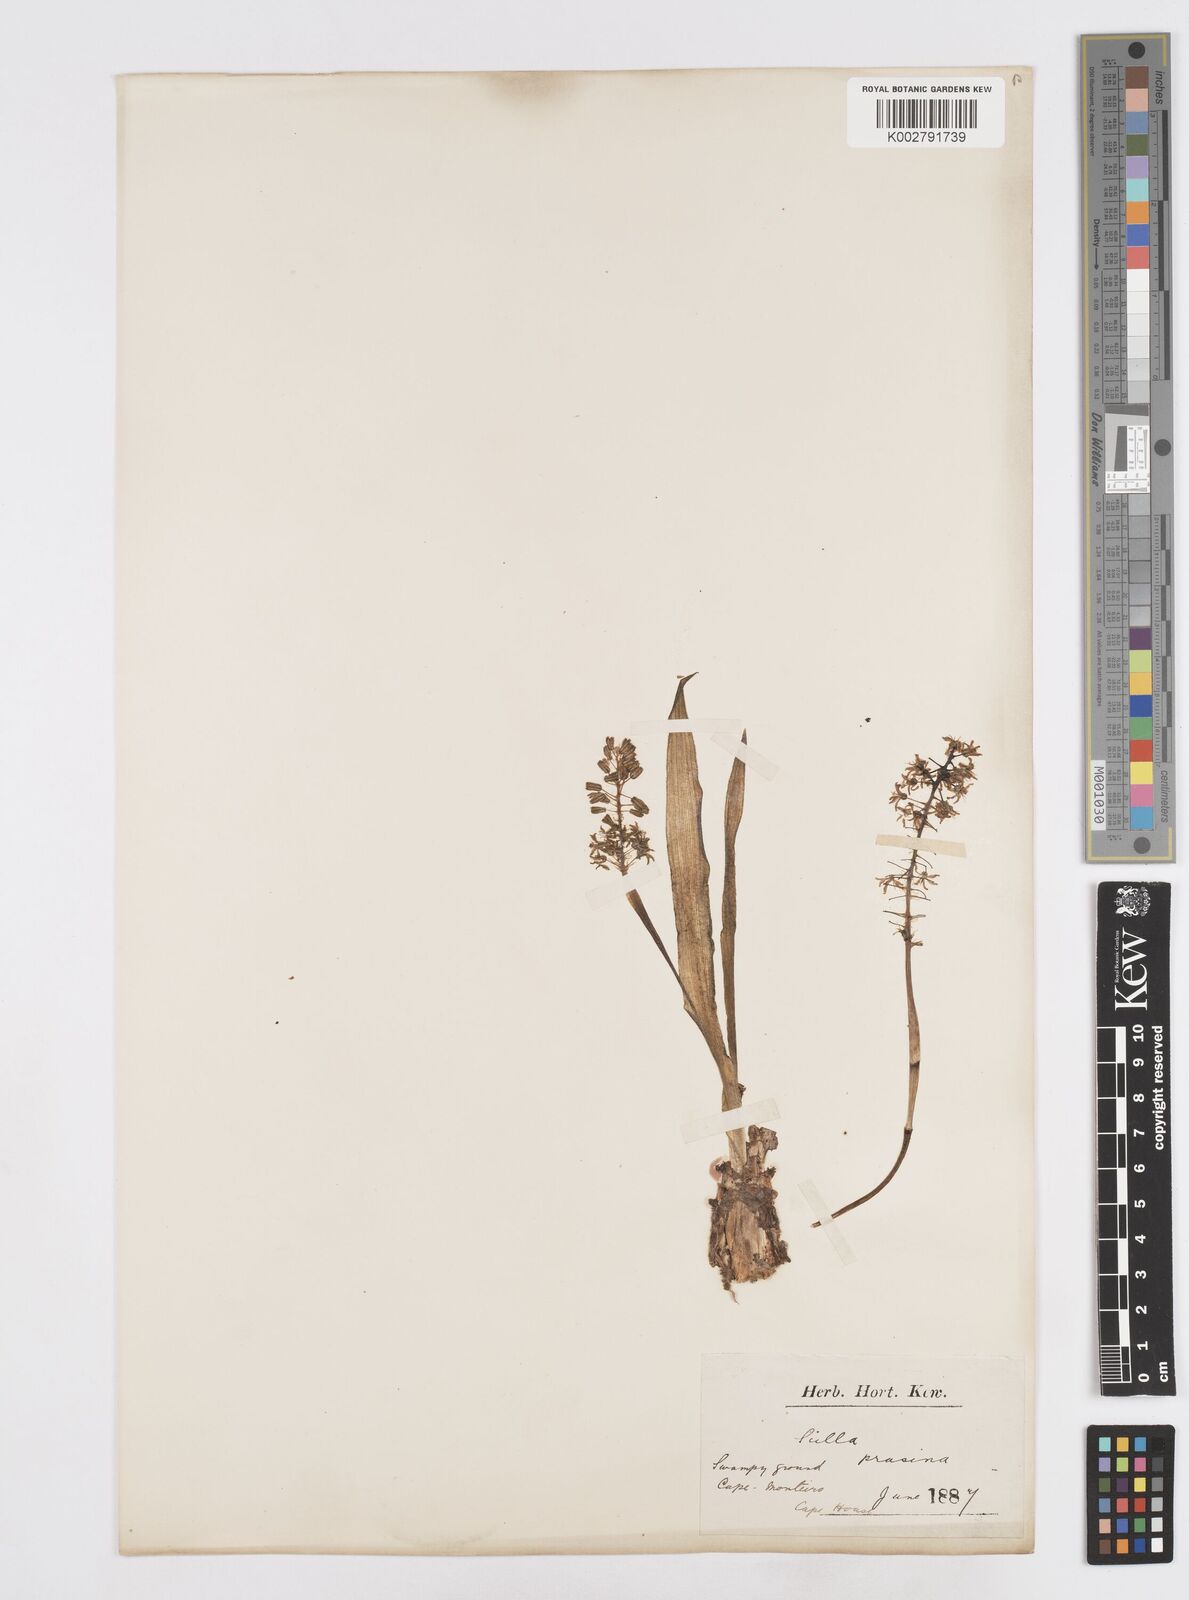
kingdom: Plantae
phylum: Tracheophyta
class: Liliopsida
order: Asparagales
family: Asparagaceae
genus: Ledebouria
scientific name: Ledebouria ensifolia
